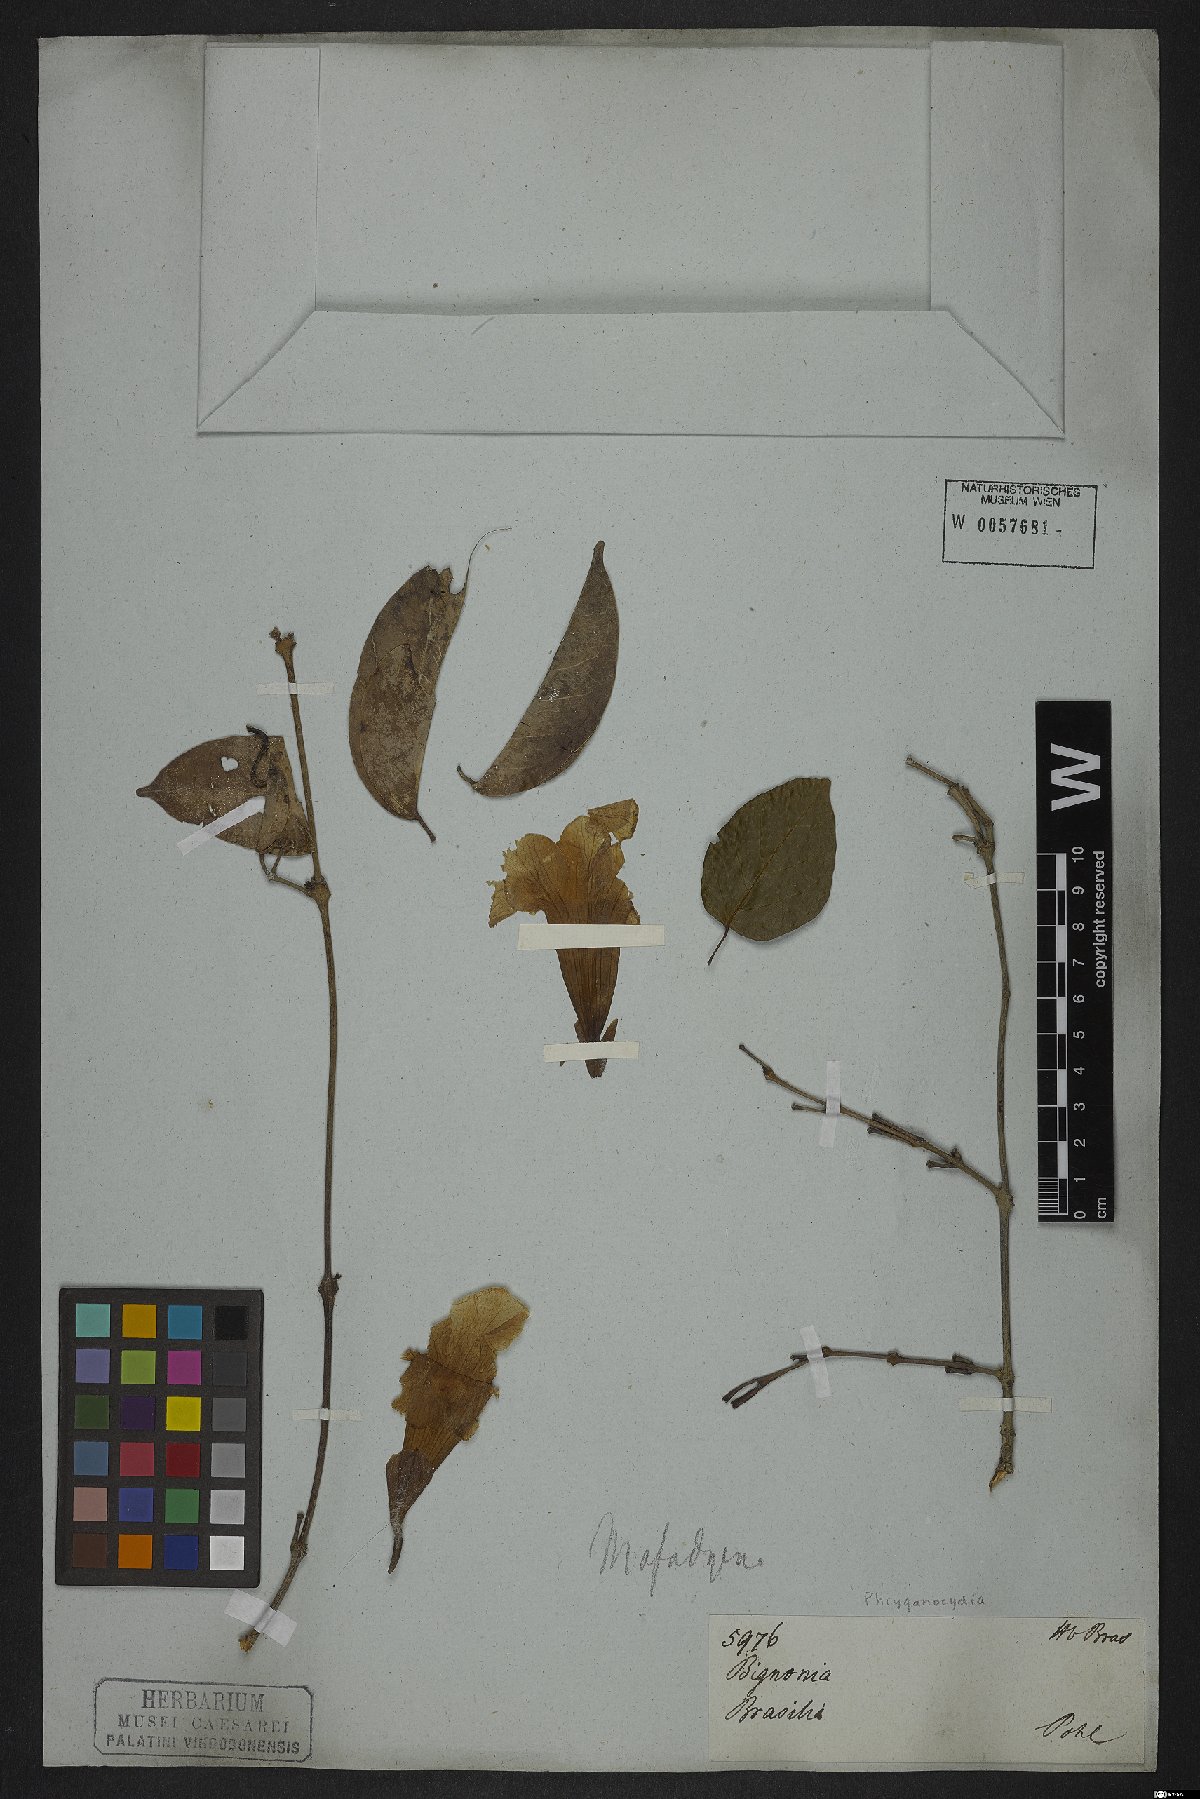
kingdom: Plantae
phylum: Tracheophyta
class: Magnoliopsida
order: Lamiales
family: Bignoniaceae
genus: Phryganocydia
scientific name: Phryganocydia
